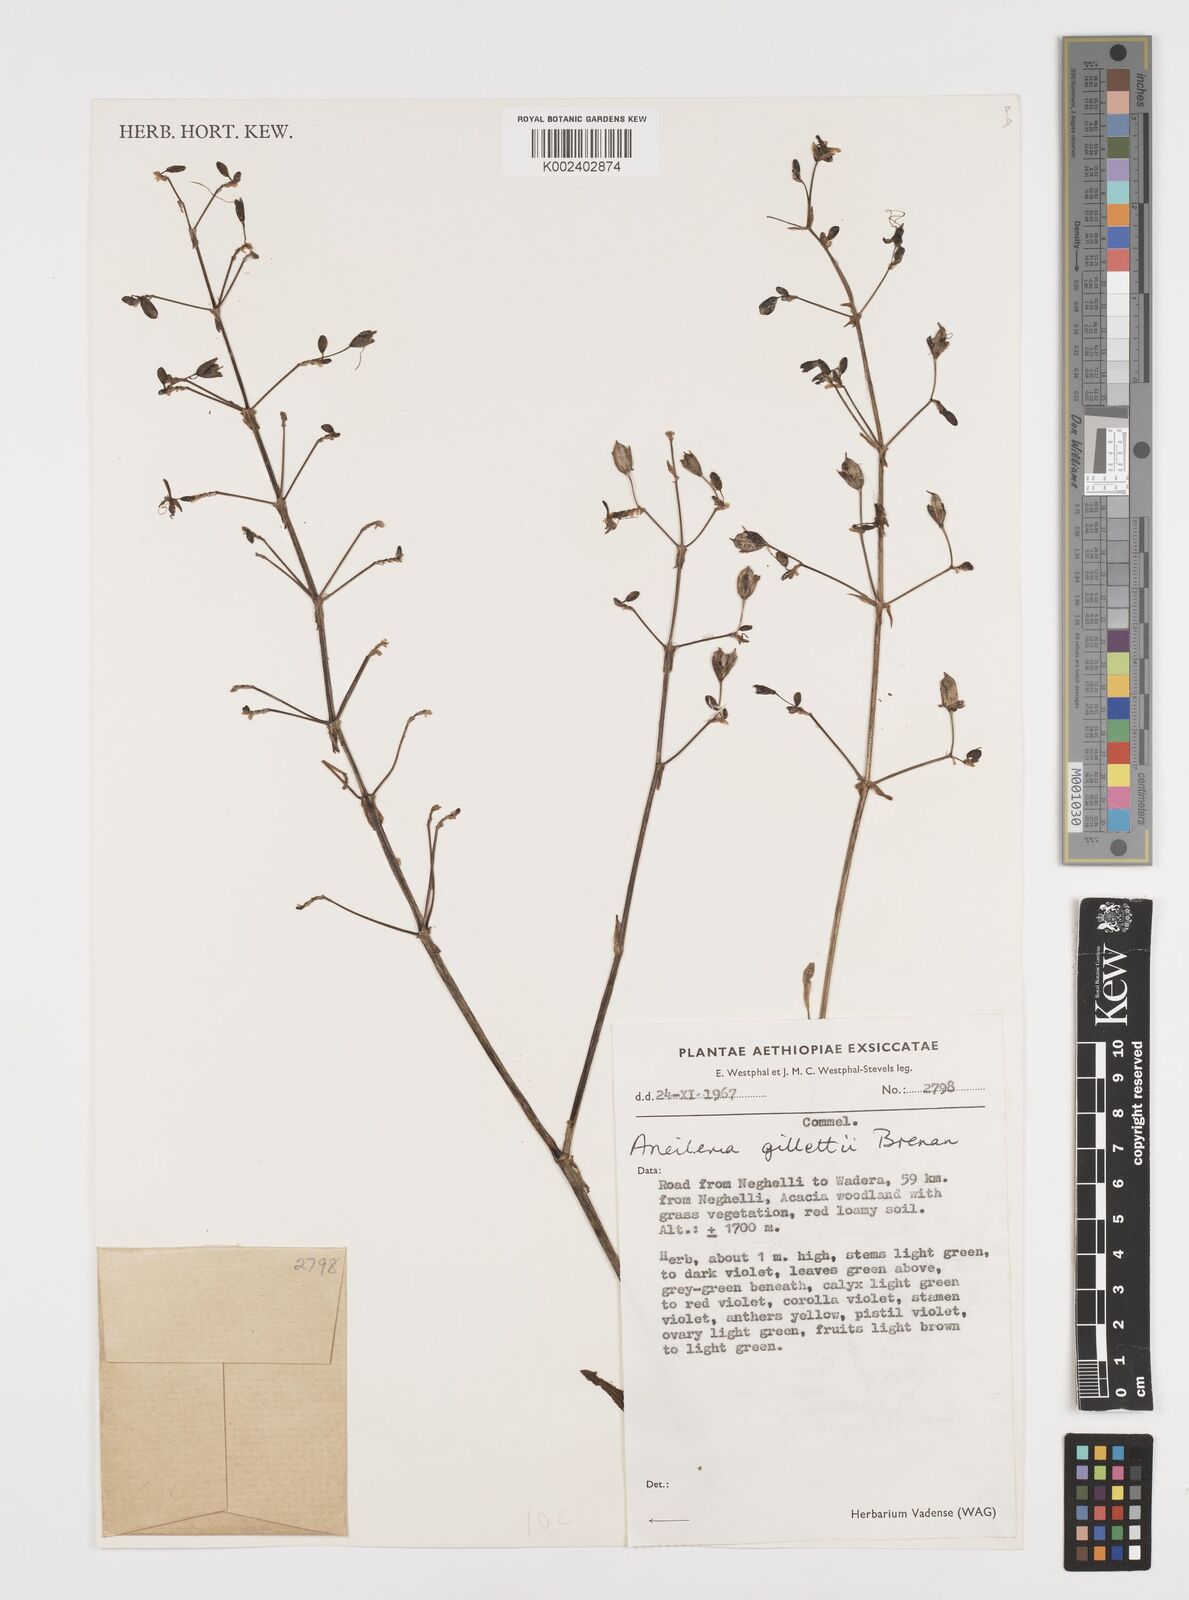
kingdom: Plantae
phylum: Tracheophyta
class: Liliopsida
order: Commelinales
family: Commelinaceae
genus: Aneilema
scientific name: Aneilema gillettii
